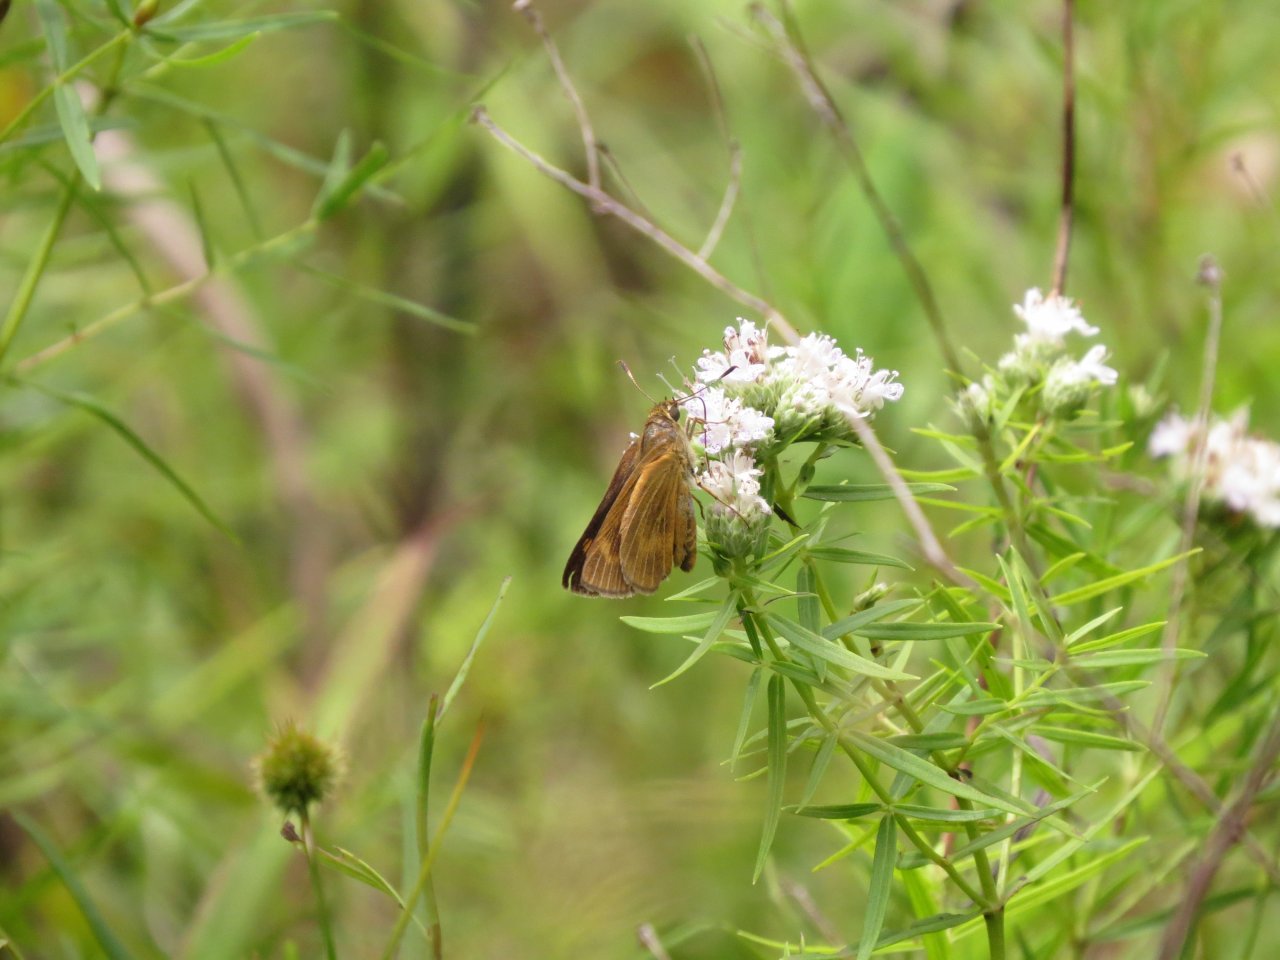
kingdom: Animalia
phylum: Arthropoda
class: Insecta
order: Lepidoptera
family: Hesperiidae
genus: Problema
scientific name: Problema byssus
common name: Byssus Skipper
